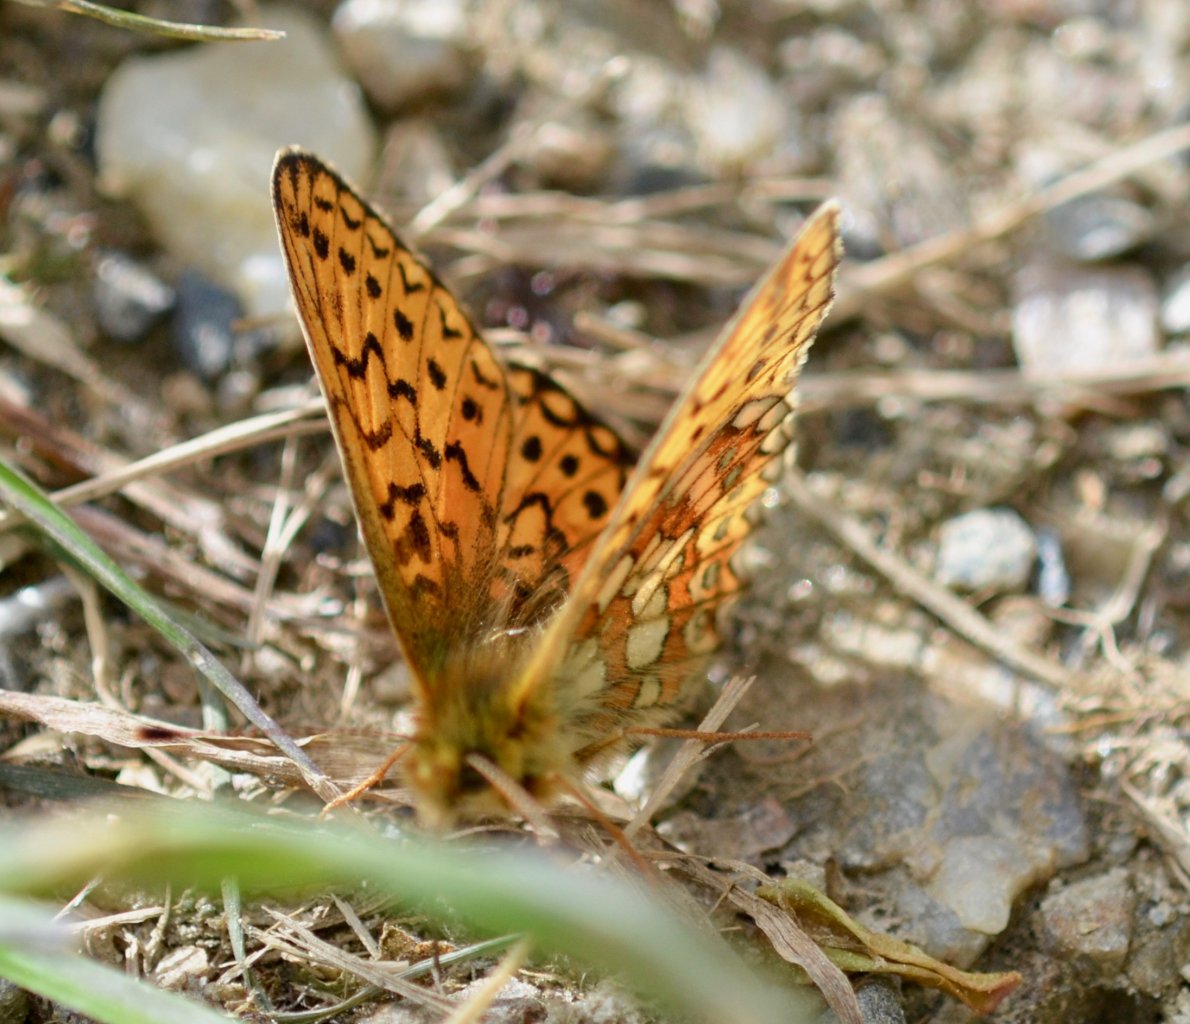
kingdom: Animalia
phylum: Arthropoda
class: Insecta
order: Lepidoptera
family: Nymphalidae
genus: Boloria
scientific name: Boloria eunomia
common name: Bog Fritillary
